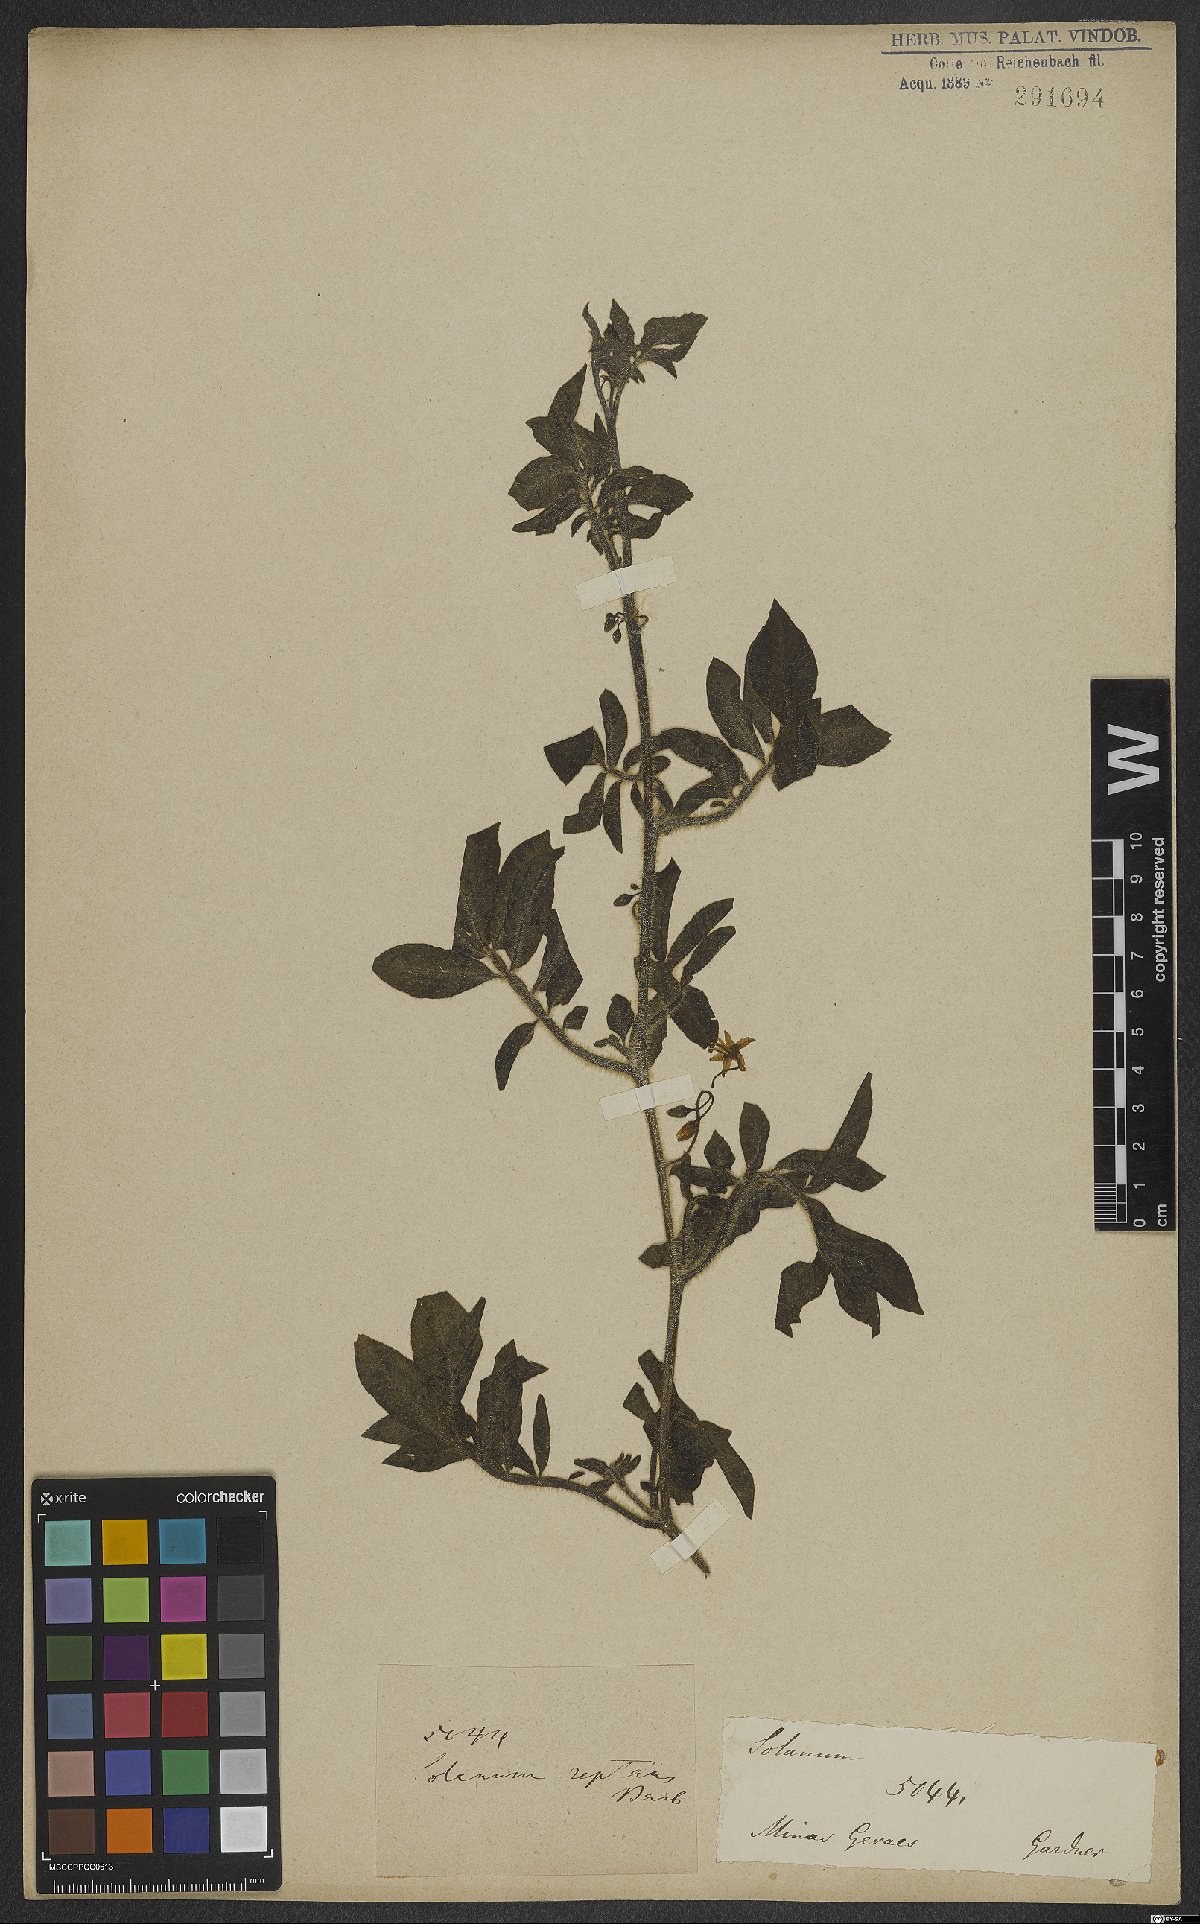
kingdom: Plantae
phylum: Tracheophyta
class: Magnoliopsida
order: Solanales
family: Solanaceae
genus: Solanum
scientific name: Solanum reptans
